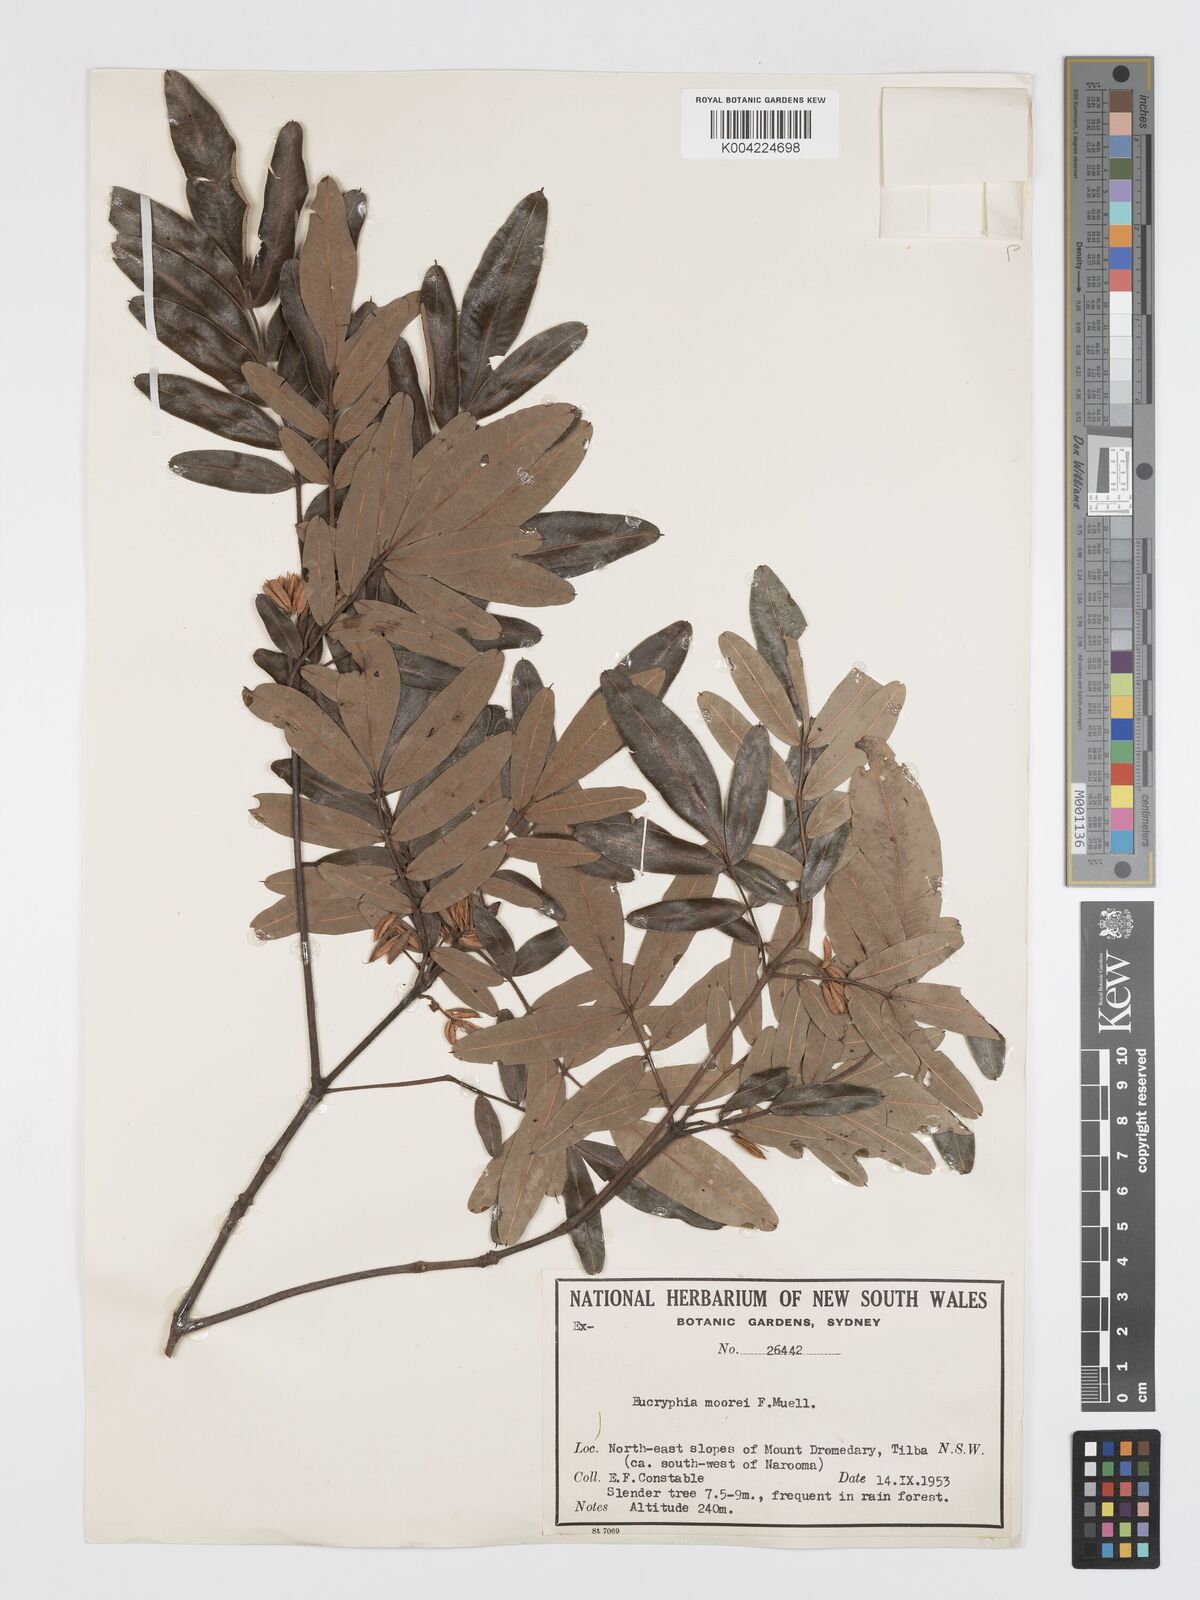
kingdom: Plantae
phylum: Tracheophyta
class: Magnoliopsida
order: Oxalidales
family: Cunoniaceae
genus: Eucryphia
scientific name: Eucryphia moorei
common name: Acacia-plum
